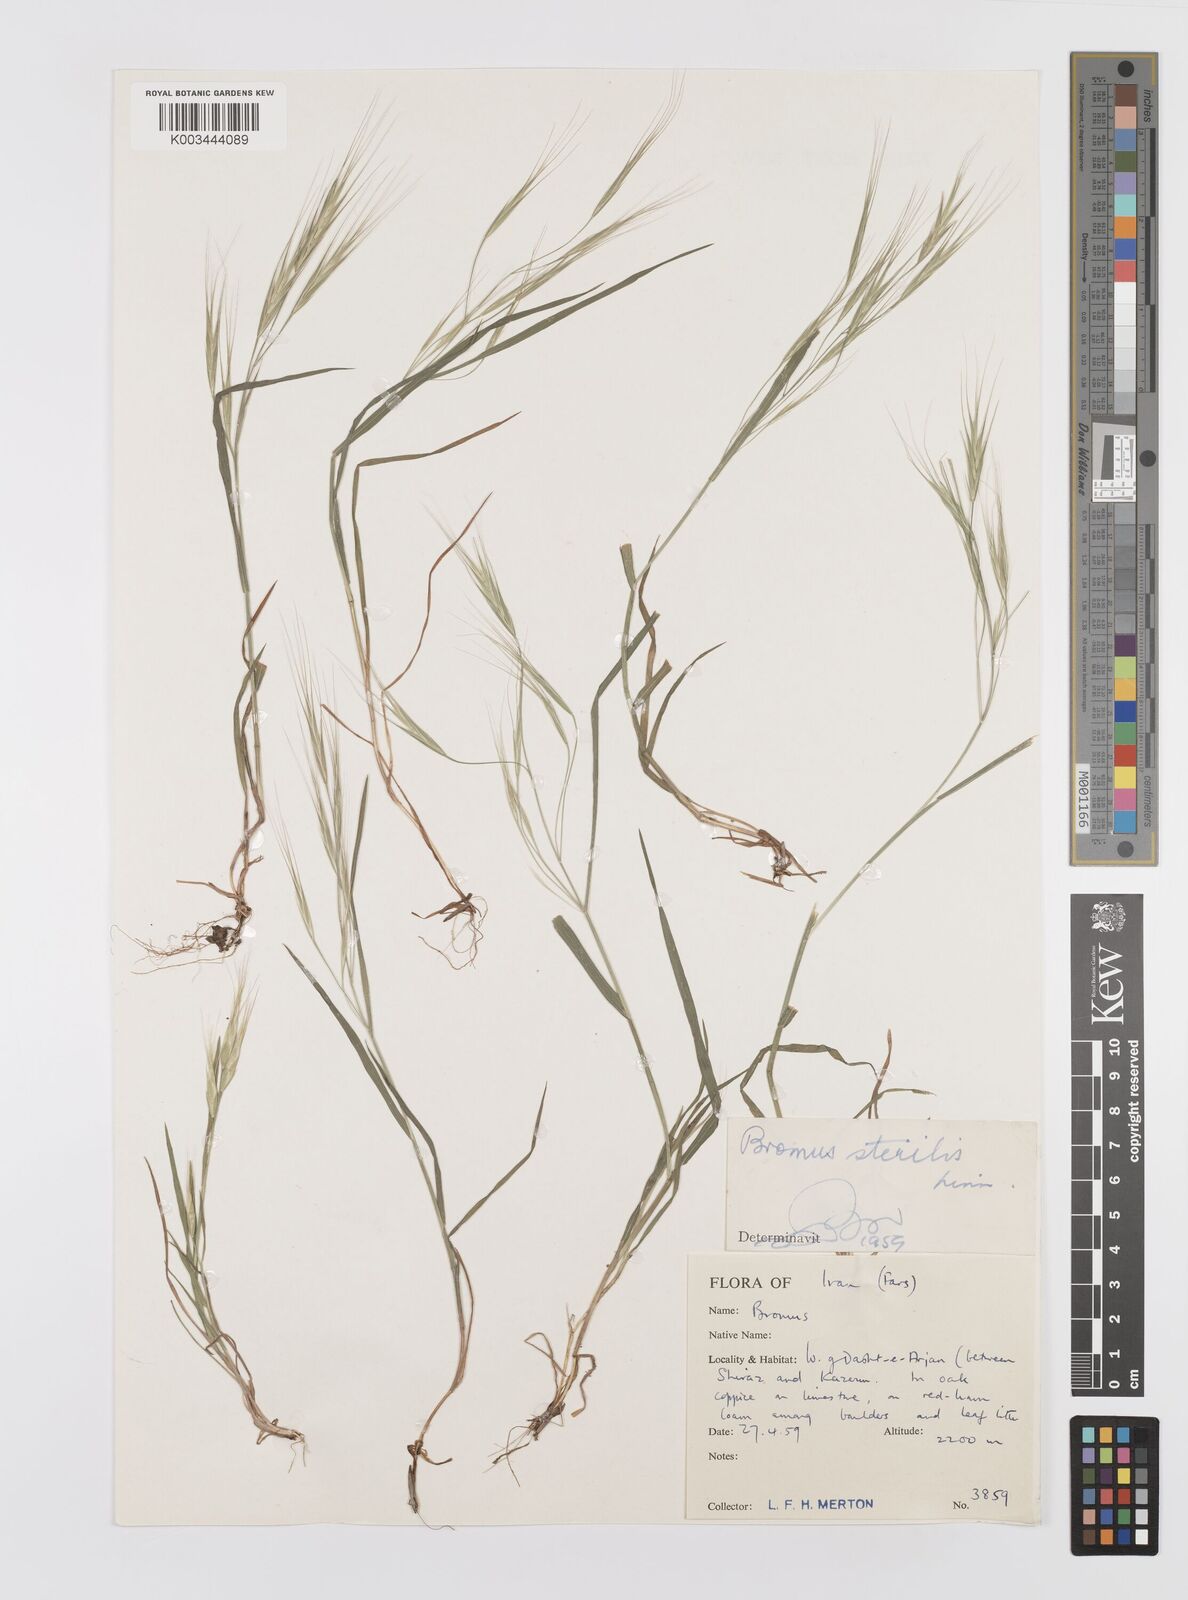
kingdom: Plantae
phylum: Tracheophyta
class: Liliopsida
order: Poales
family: Poaceae
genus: Bromus
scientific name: Bromus sterilis
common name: Poverty brome
